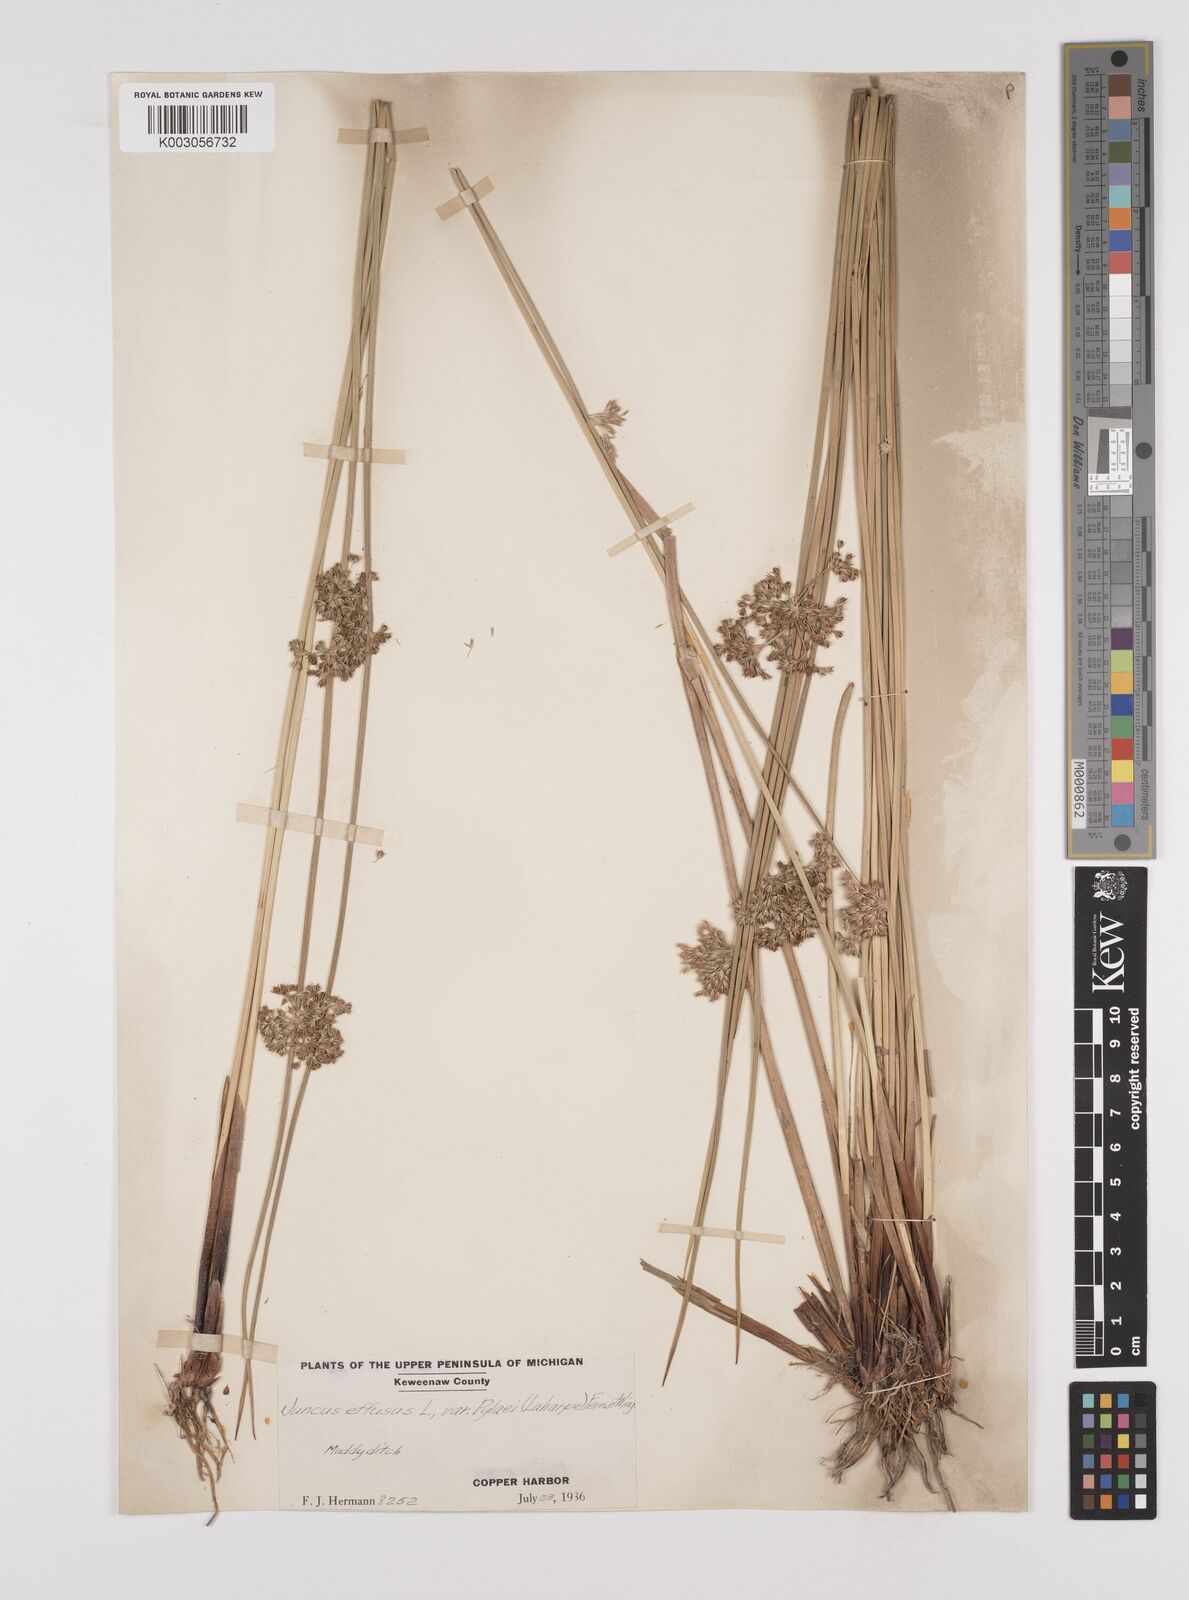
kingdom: Plantae
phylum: Tracheophyta
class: Liliopsida
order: Poales
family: Juncaceae
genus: Juncus
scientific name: Juncus effusus
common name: Soft rush
